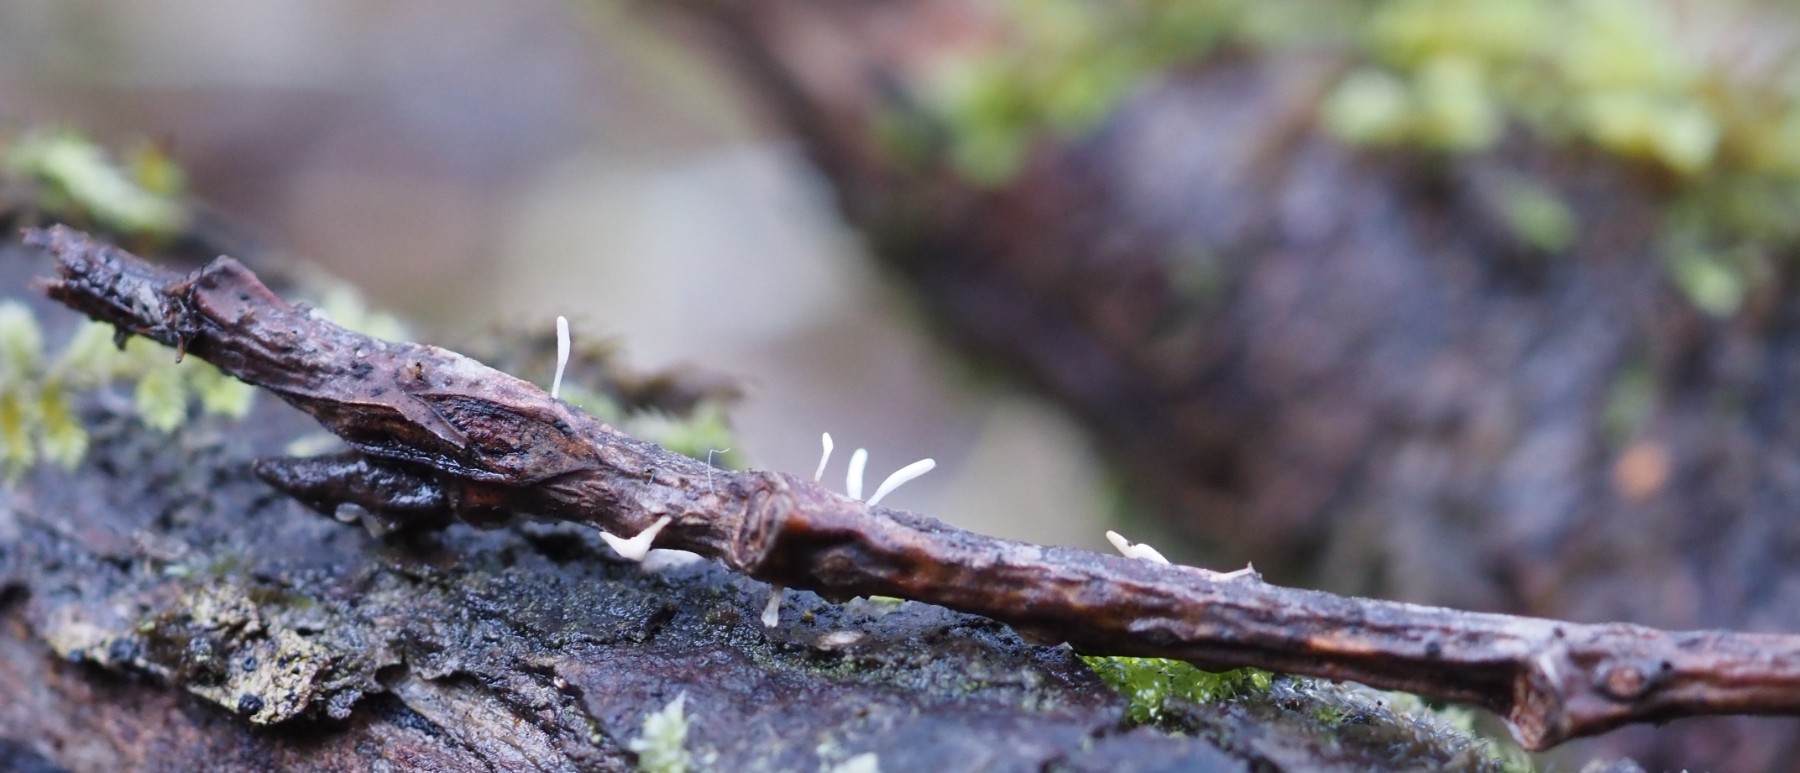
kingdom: Fungi
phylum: Basidiomycota
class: Agaricomycetes
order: Agaricales
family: Typhulaceae
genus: Typhula
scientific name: Typhula spathulata
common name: aske-trådkølle
